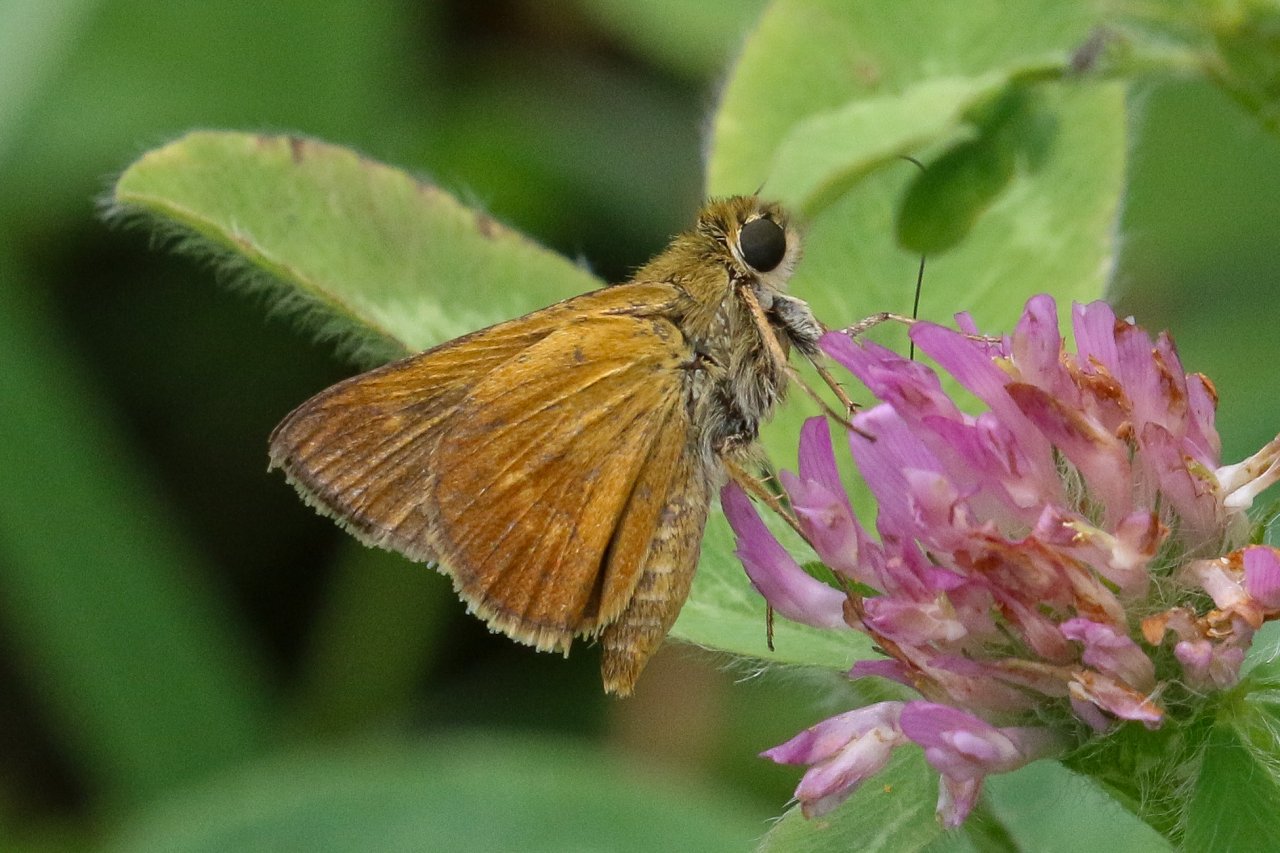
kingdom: Animalia
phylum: Arthropoda
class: Insecta
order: Lepidoptera
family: Hesperiidae
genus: Wallengrenia
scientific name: Wallengrenia otho
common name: Southern Broken-Dash
